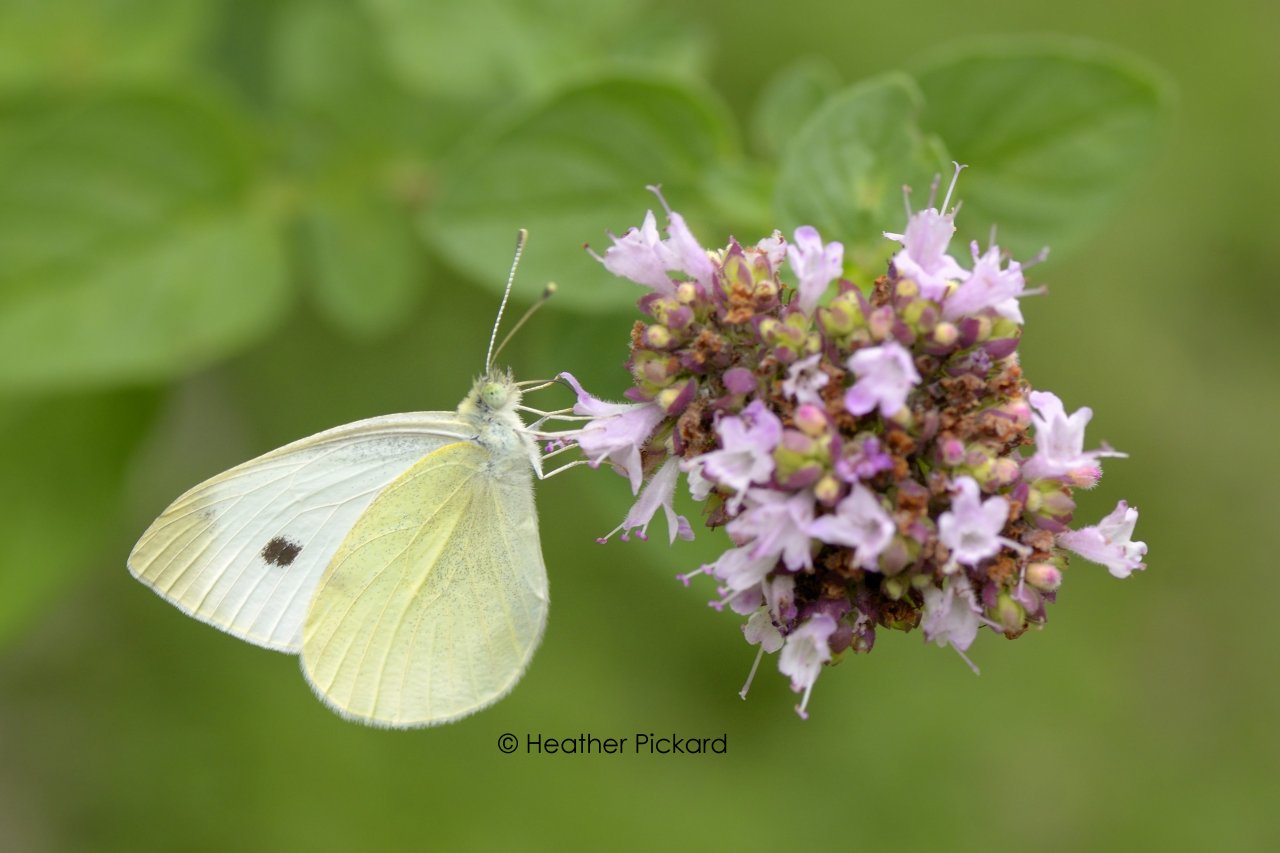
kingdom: Animalia
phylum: Arthropoda
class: Insecta
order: Lepidoptera
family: Pieridae
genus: Pieris
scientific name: Pieris rapae
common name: Cabbage White
